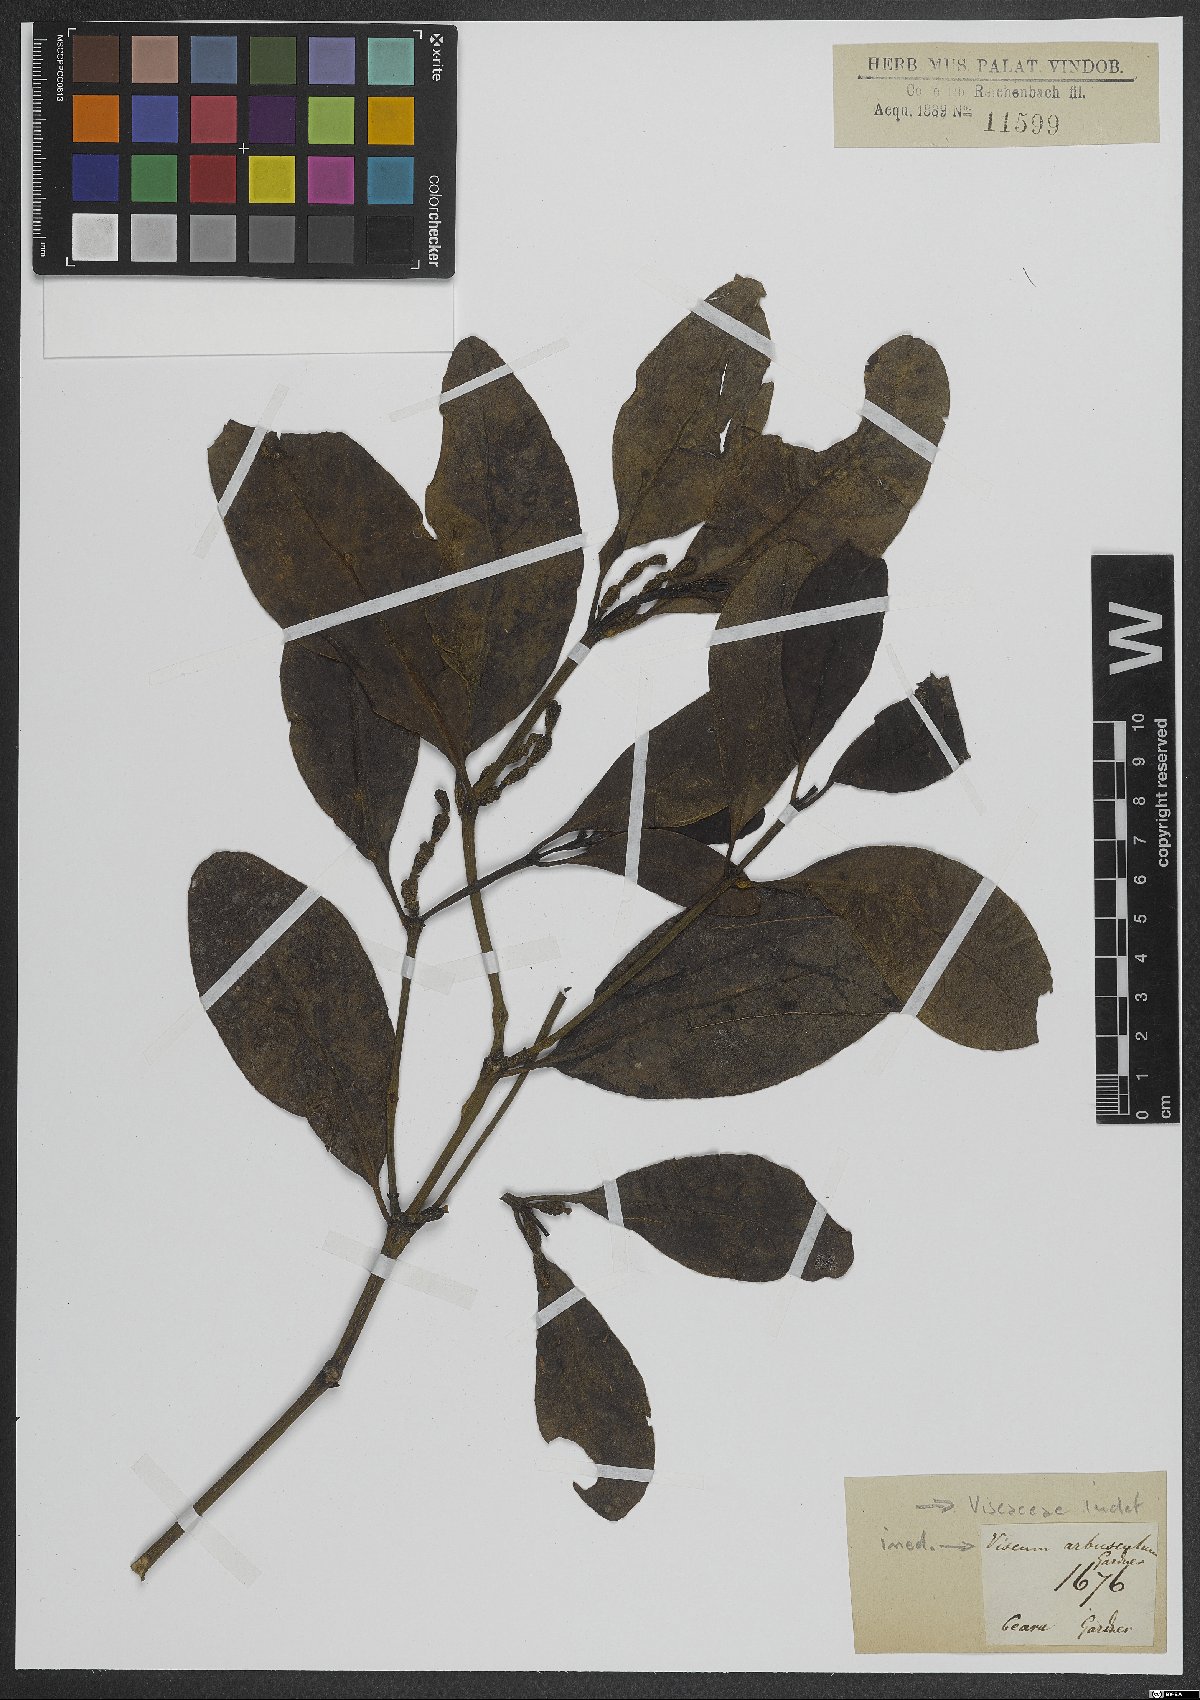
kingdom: Plantae
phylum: Tracheophyta
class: Magnoliopsida
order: Santalales
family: Viscaceae
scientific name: Viscaceae
